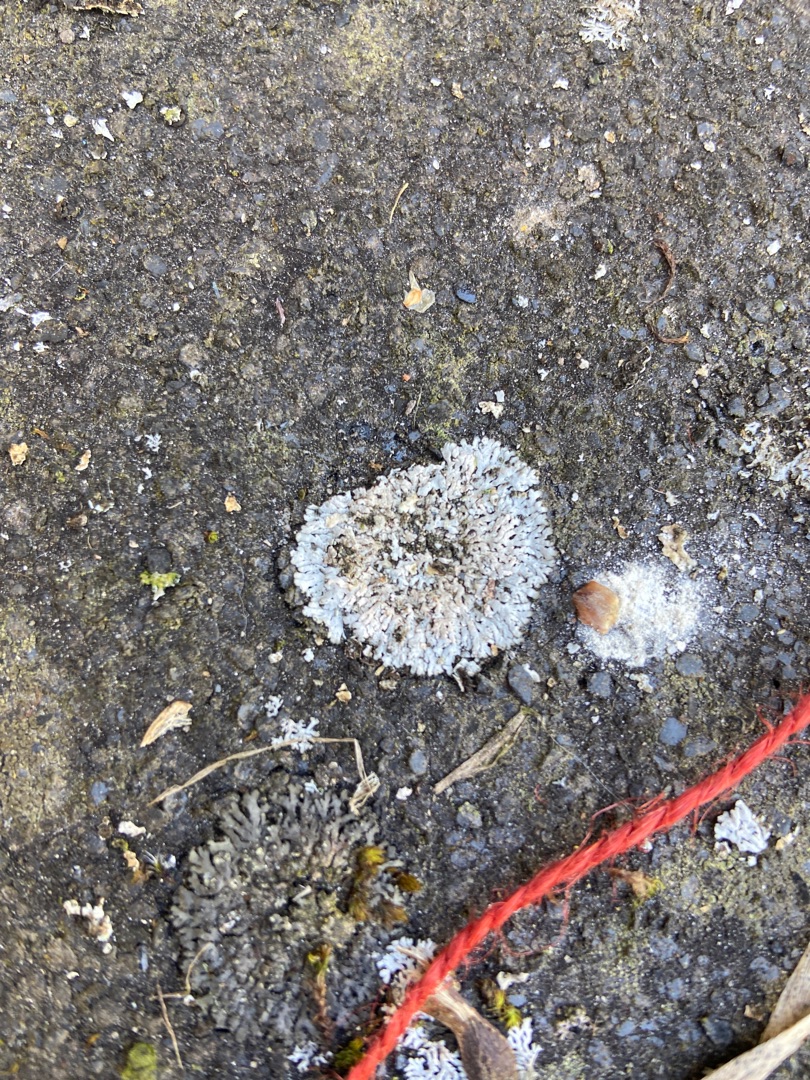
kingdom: Fungi
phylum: Ascomycota
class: Lecanoromycetes
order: Caliciales
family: Physciaceae
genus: Physcia
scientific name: Physcia caesia
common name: Blågrå rosetlav
